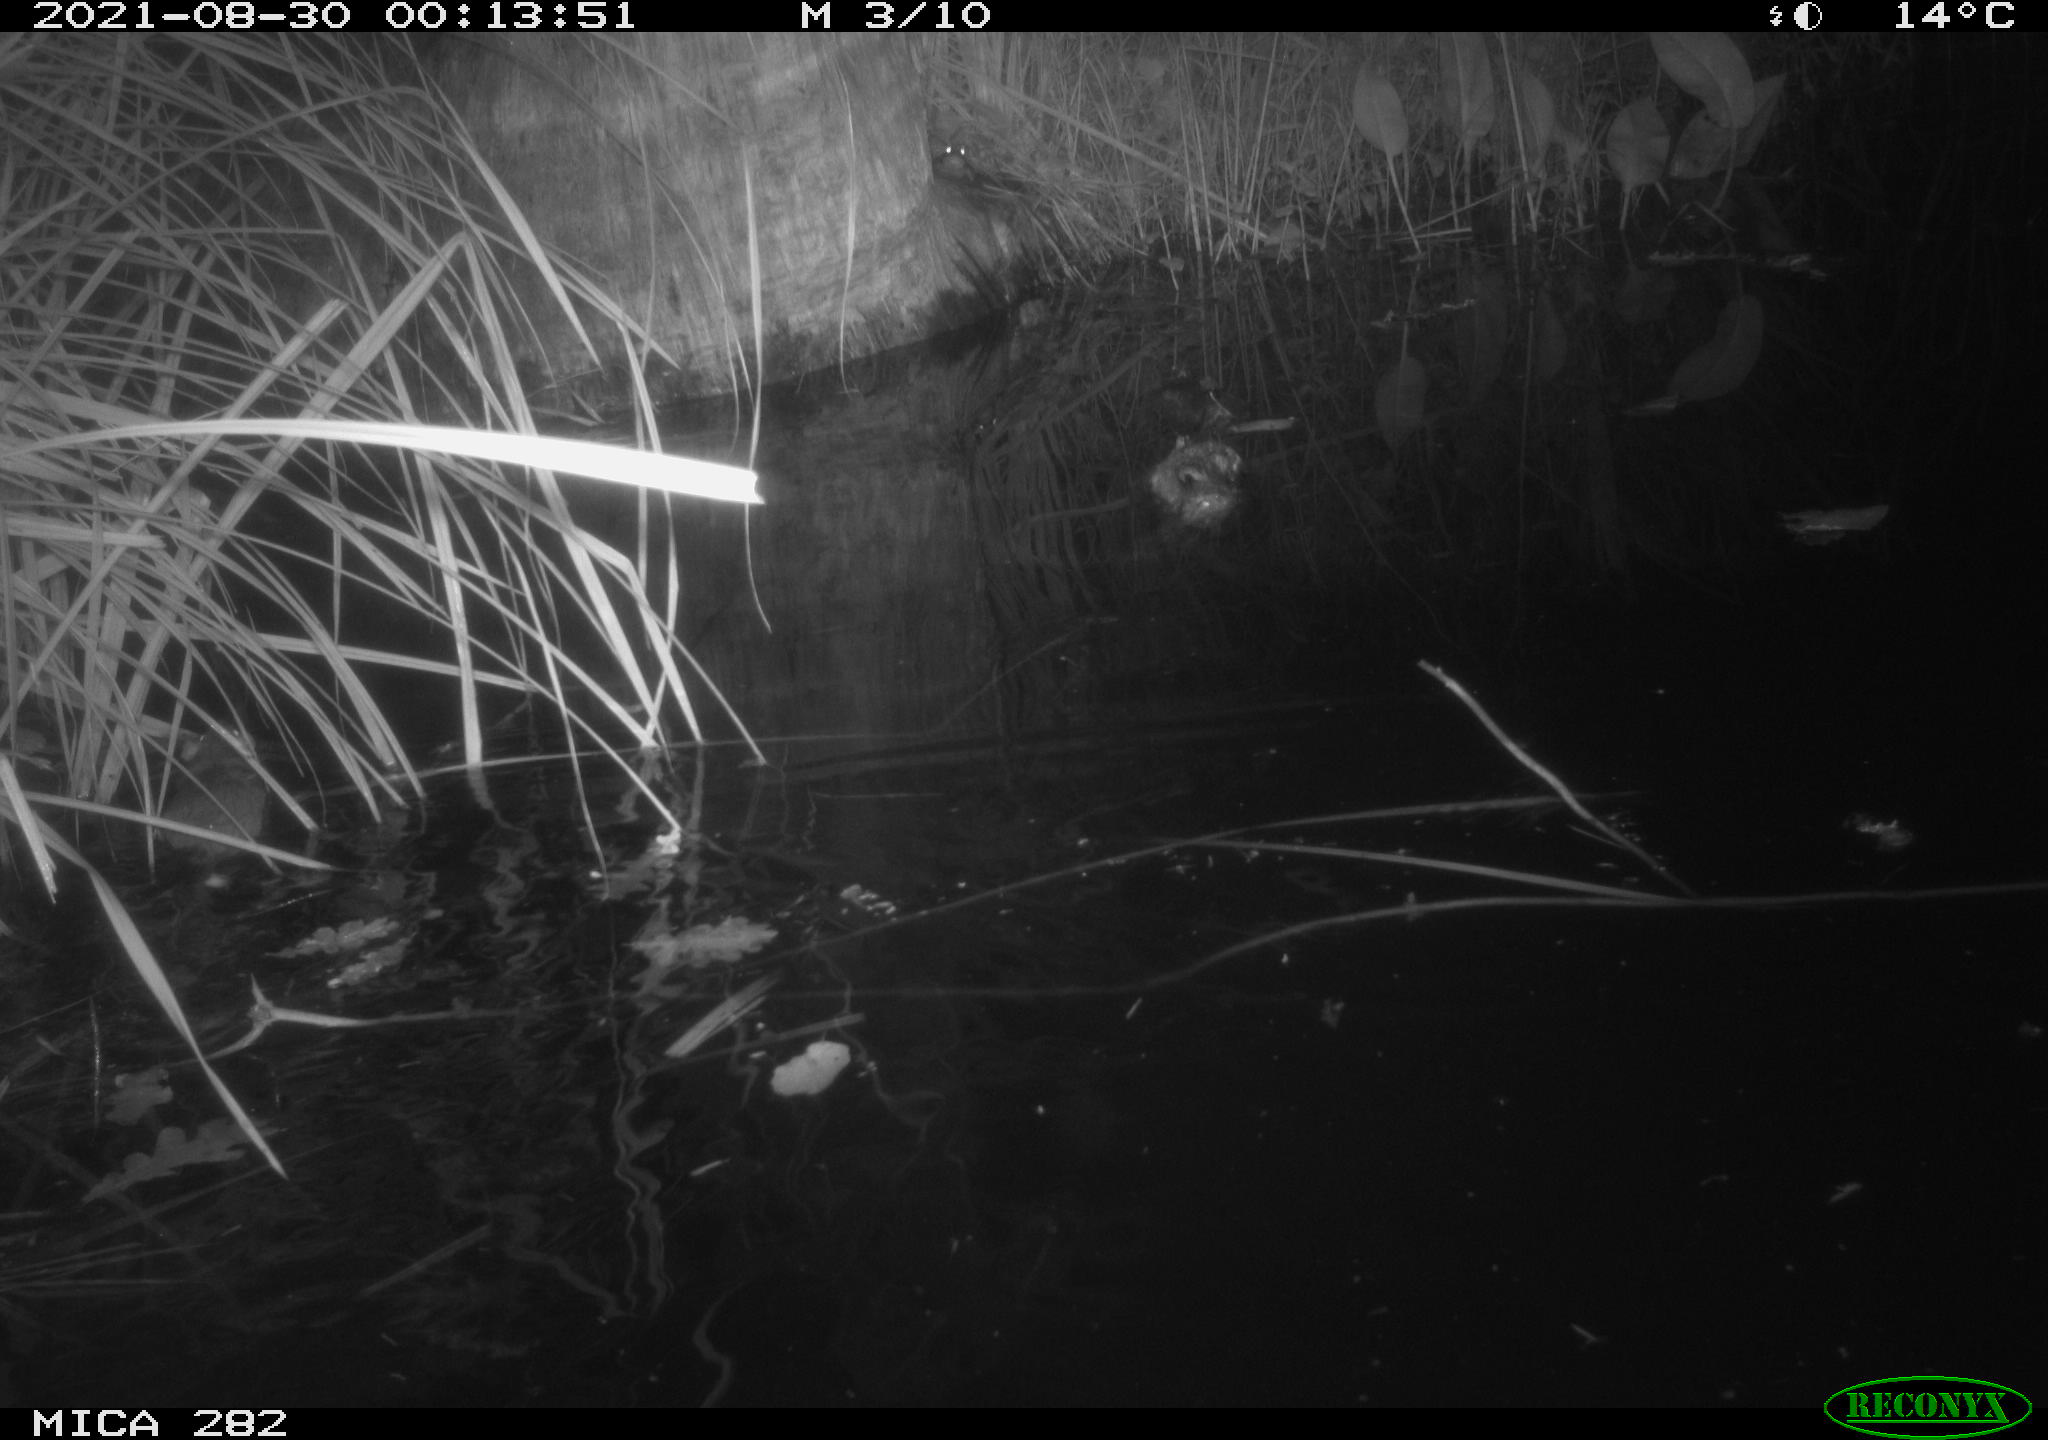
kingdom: Animalia
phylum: Chordata
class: Mammalia
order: Rodentia
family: Muridae
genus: Rattus
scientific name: Rattus norvegicus
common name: Brown rat
